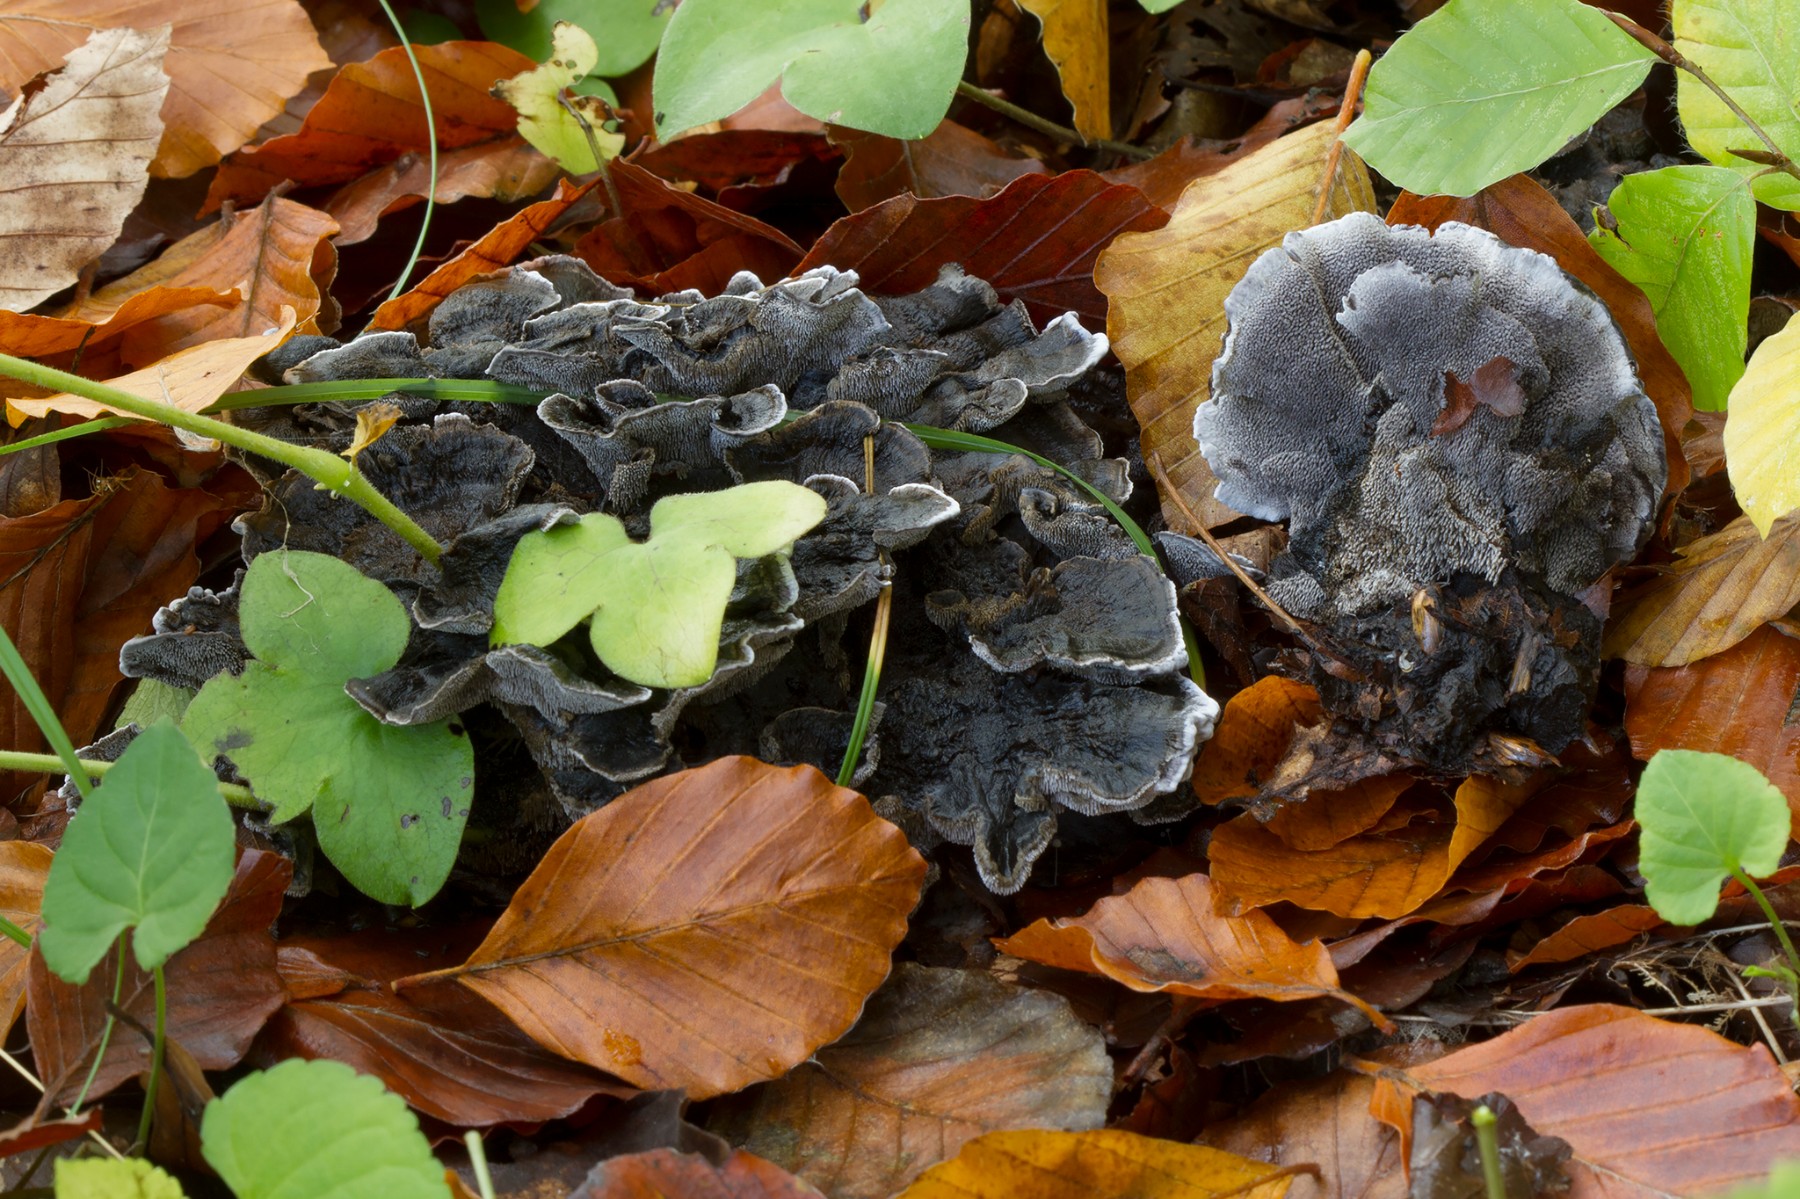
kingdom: Fungi
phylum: Basidiomycota
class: Agaricomycetes
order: Thelephorales
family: Thelephoraceae
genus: Phellodon
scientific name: Phellodon
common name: mørk duftpigsvamp
